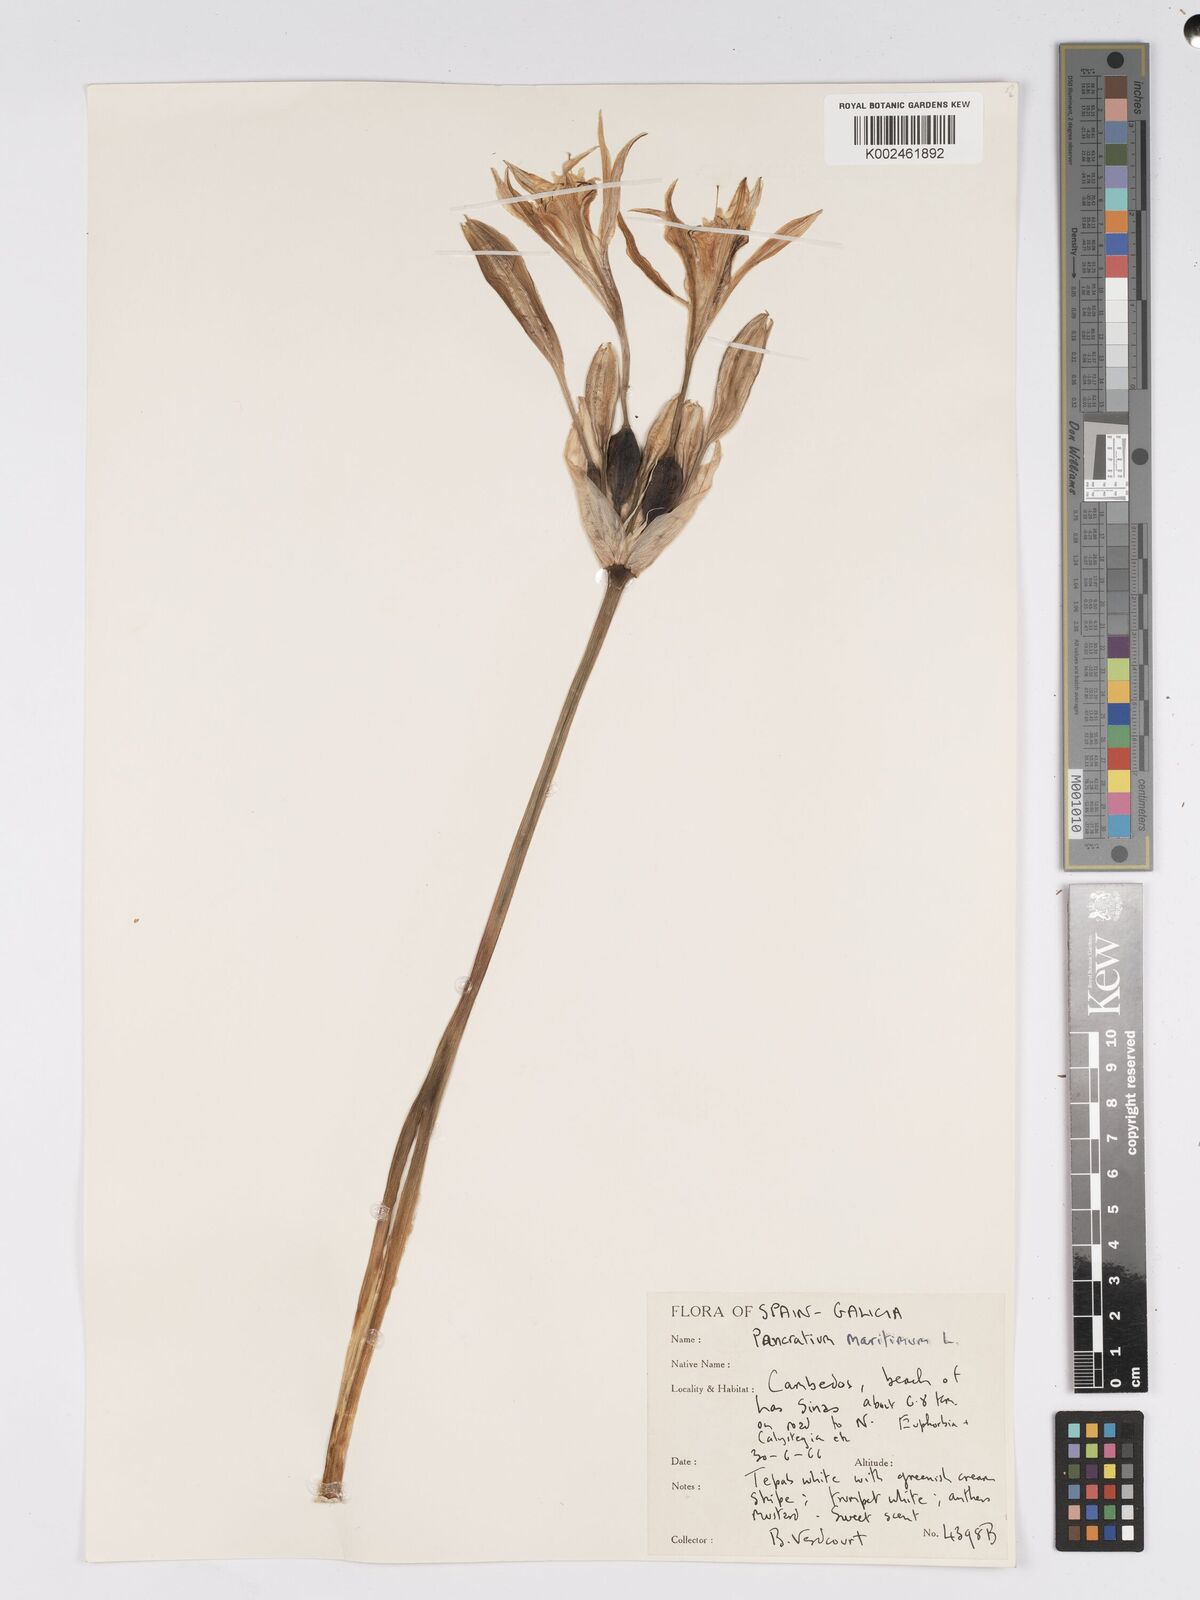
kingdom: Plantae
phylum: Tracheophyta
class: Liliopsida
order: Asparagales
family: Amaryllidaceae
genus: Pancratium
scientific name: Pancratium maritimum
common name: Sea-daffodil
